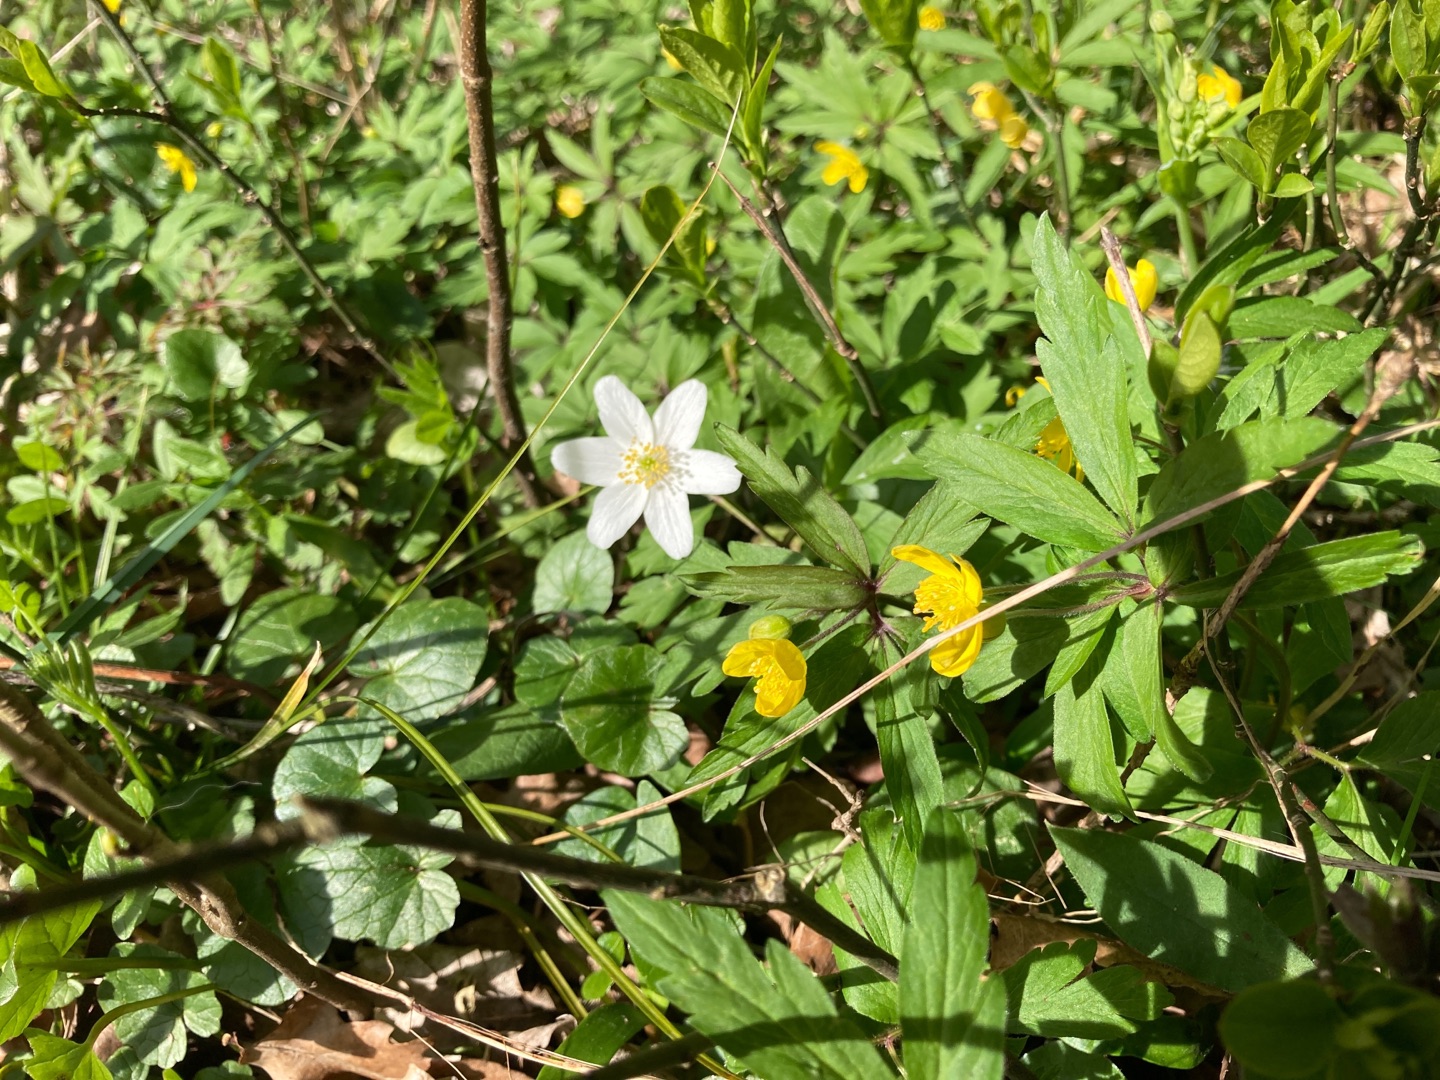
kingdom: Plantae
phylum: Tracheophyta
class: Magnoliopsida
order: Ranunculales
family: Ranunculaceae
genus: Anemone
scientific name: Anemone ranunculoides
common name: Gul anemone
